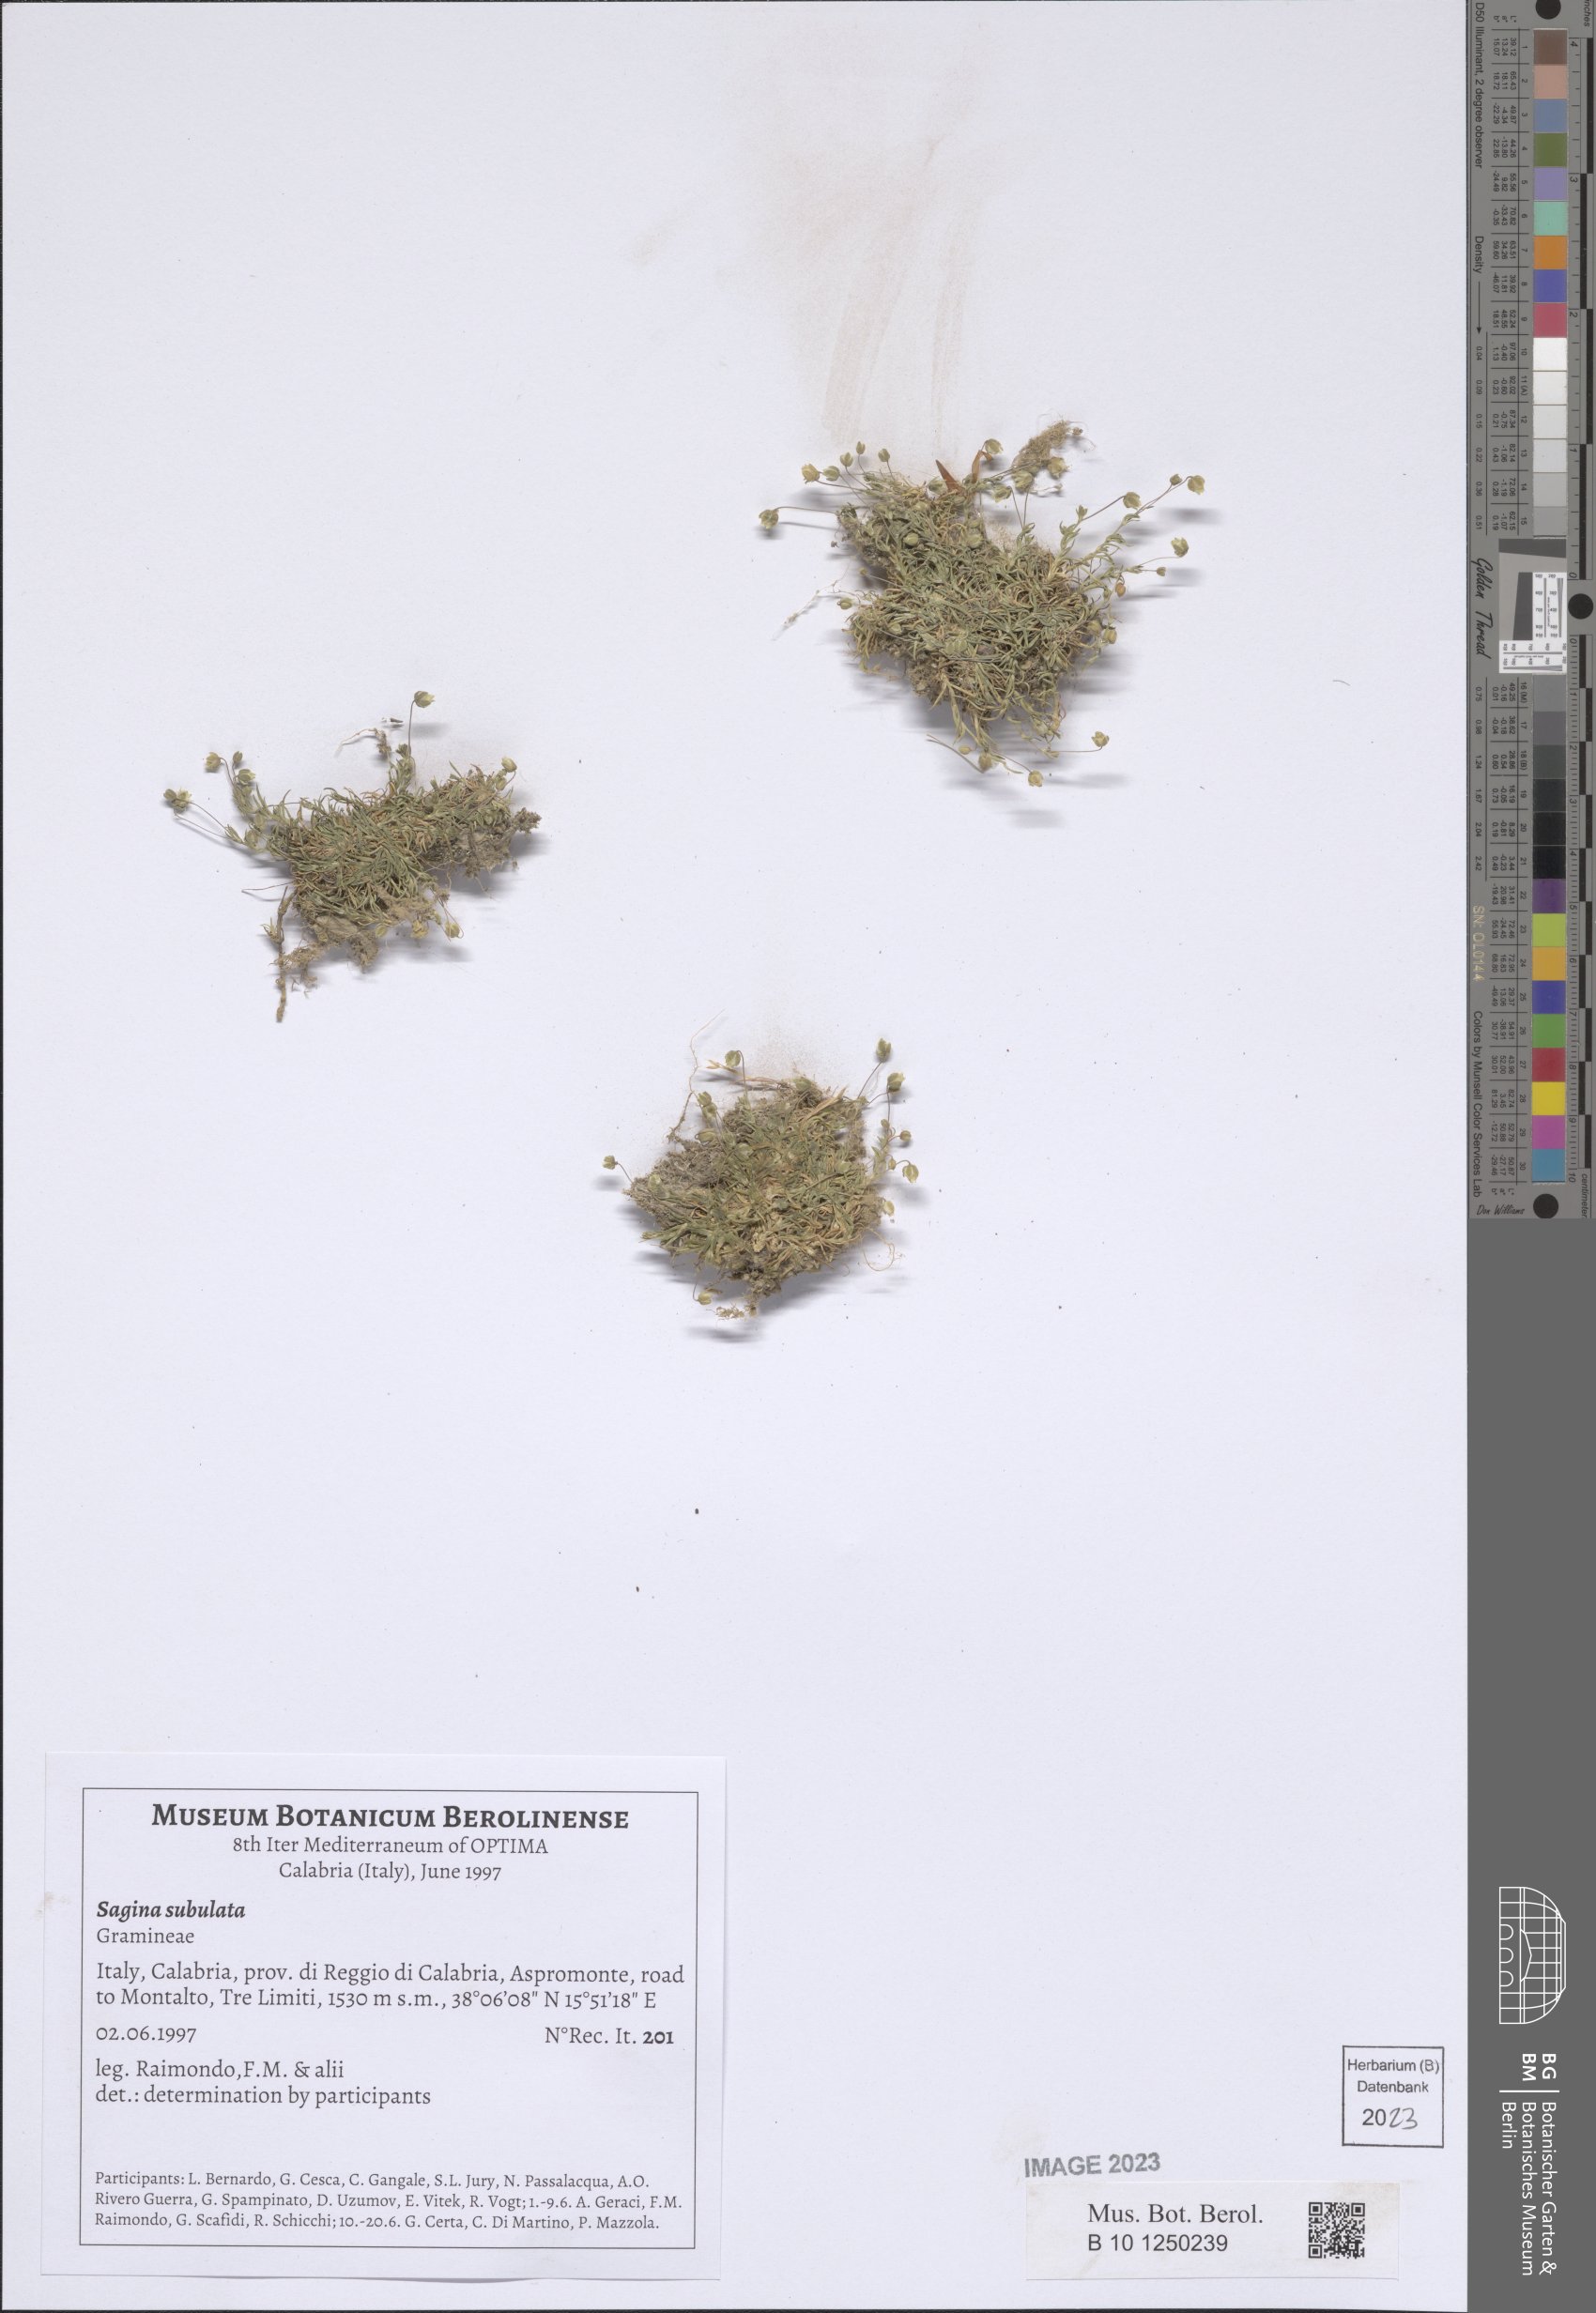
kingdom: Plantae
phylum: Tracheophyta
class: Magnoliopsida
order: Caryophyllales
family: Caryophyllaceae
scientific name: Caryophyllaceae
